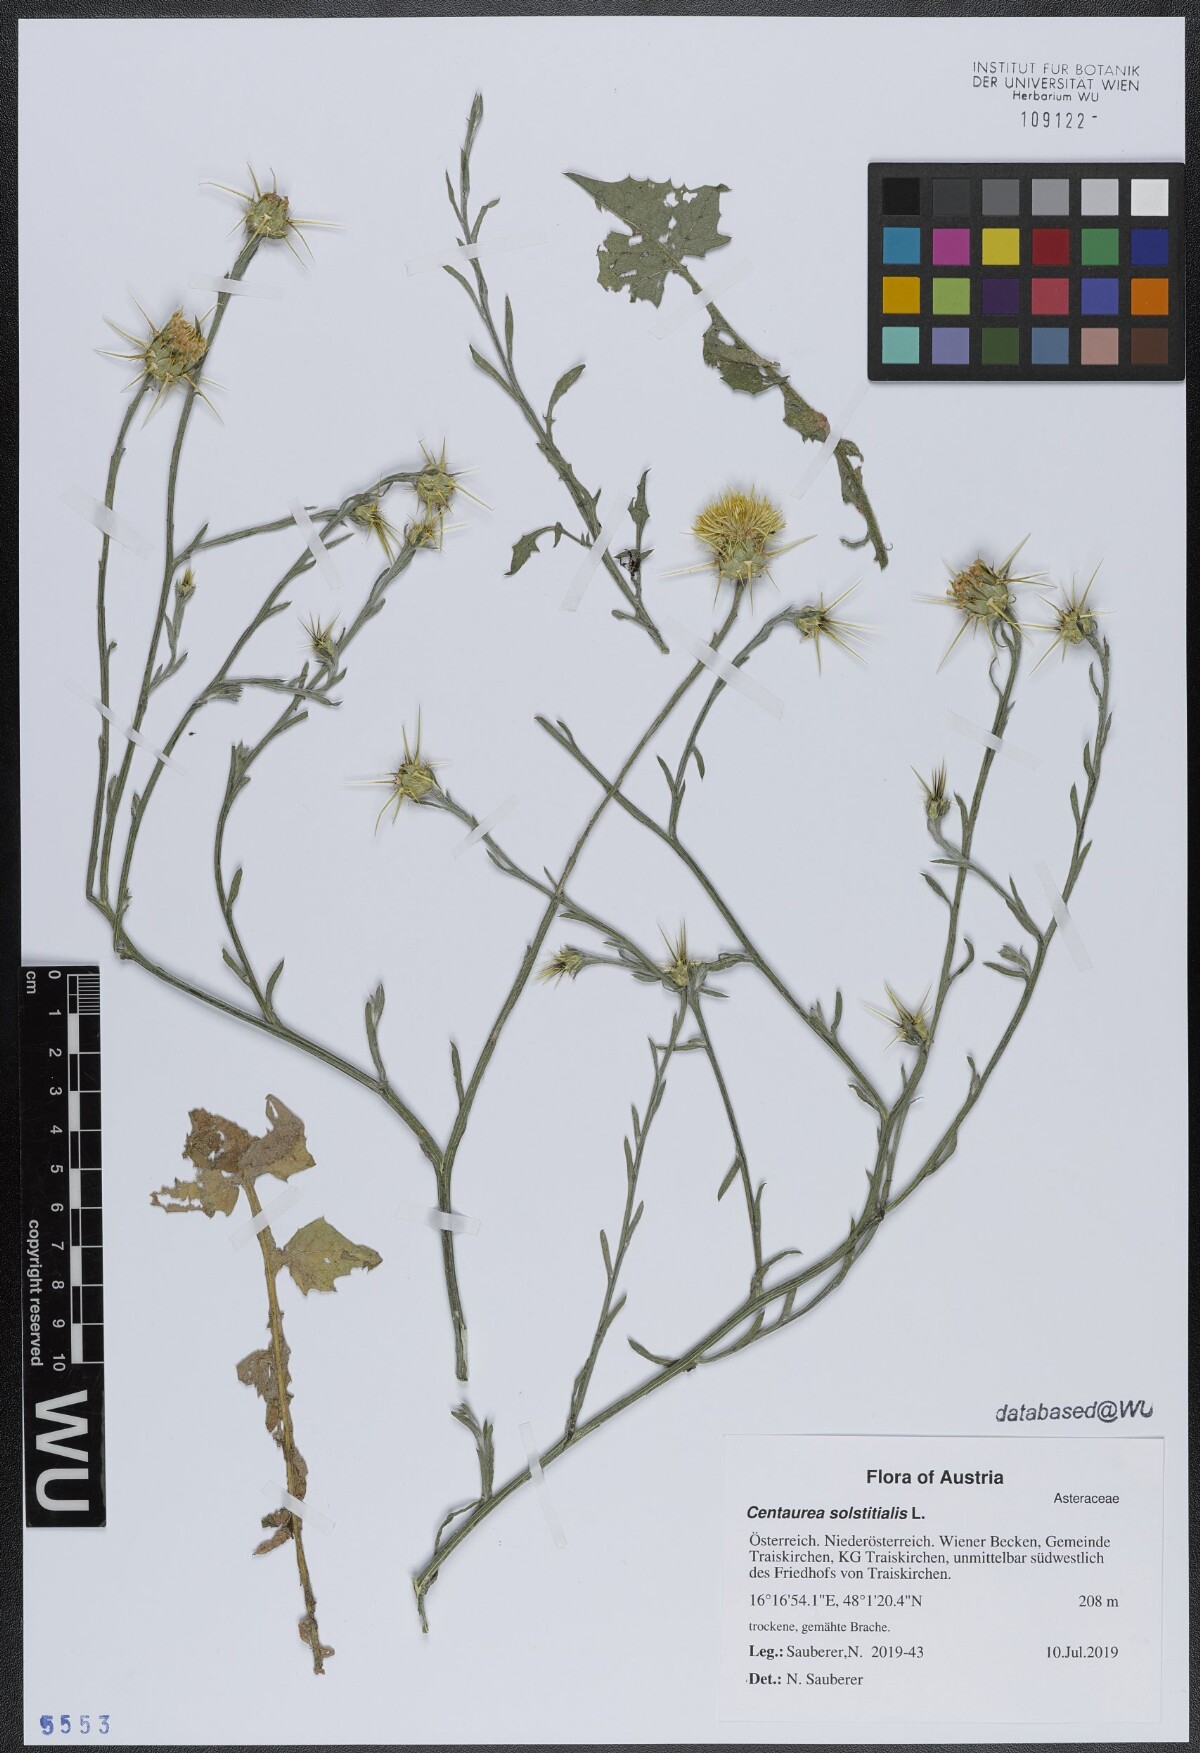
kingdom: Plantae
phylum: Tracheophyta
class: Magnoliopsida
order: Asterales
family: Asteraceae
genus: Centaurea
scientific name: Centaurea solstitialis
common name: Yellow star-thistle
